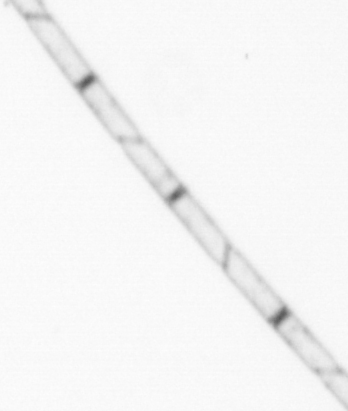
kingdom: Chromista
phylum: Ochrophyta
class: Bacillariophyceae
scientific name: Bacillariophyceae
